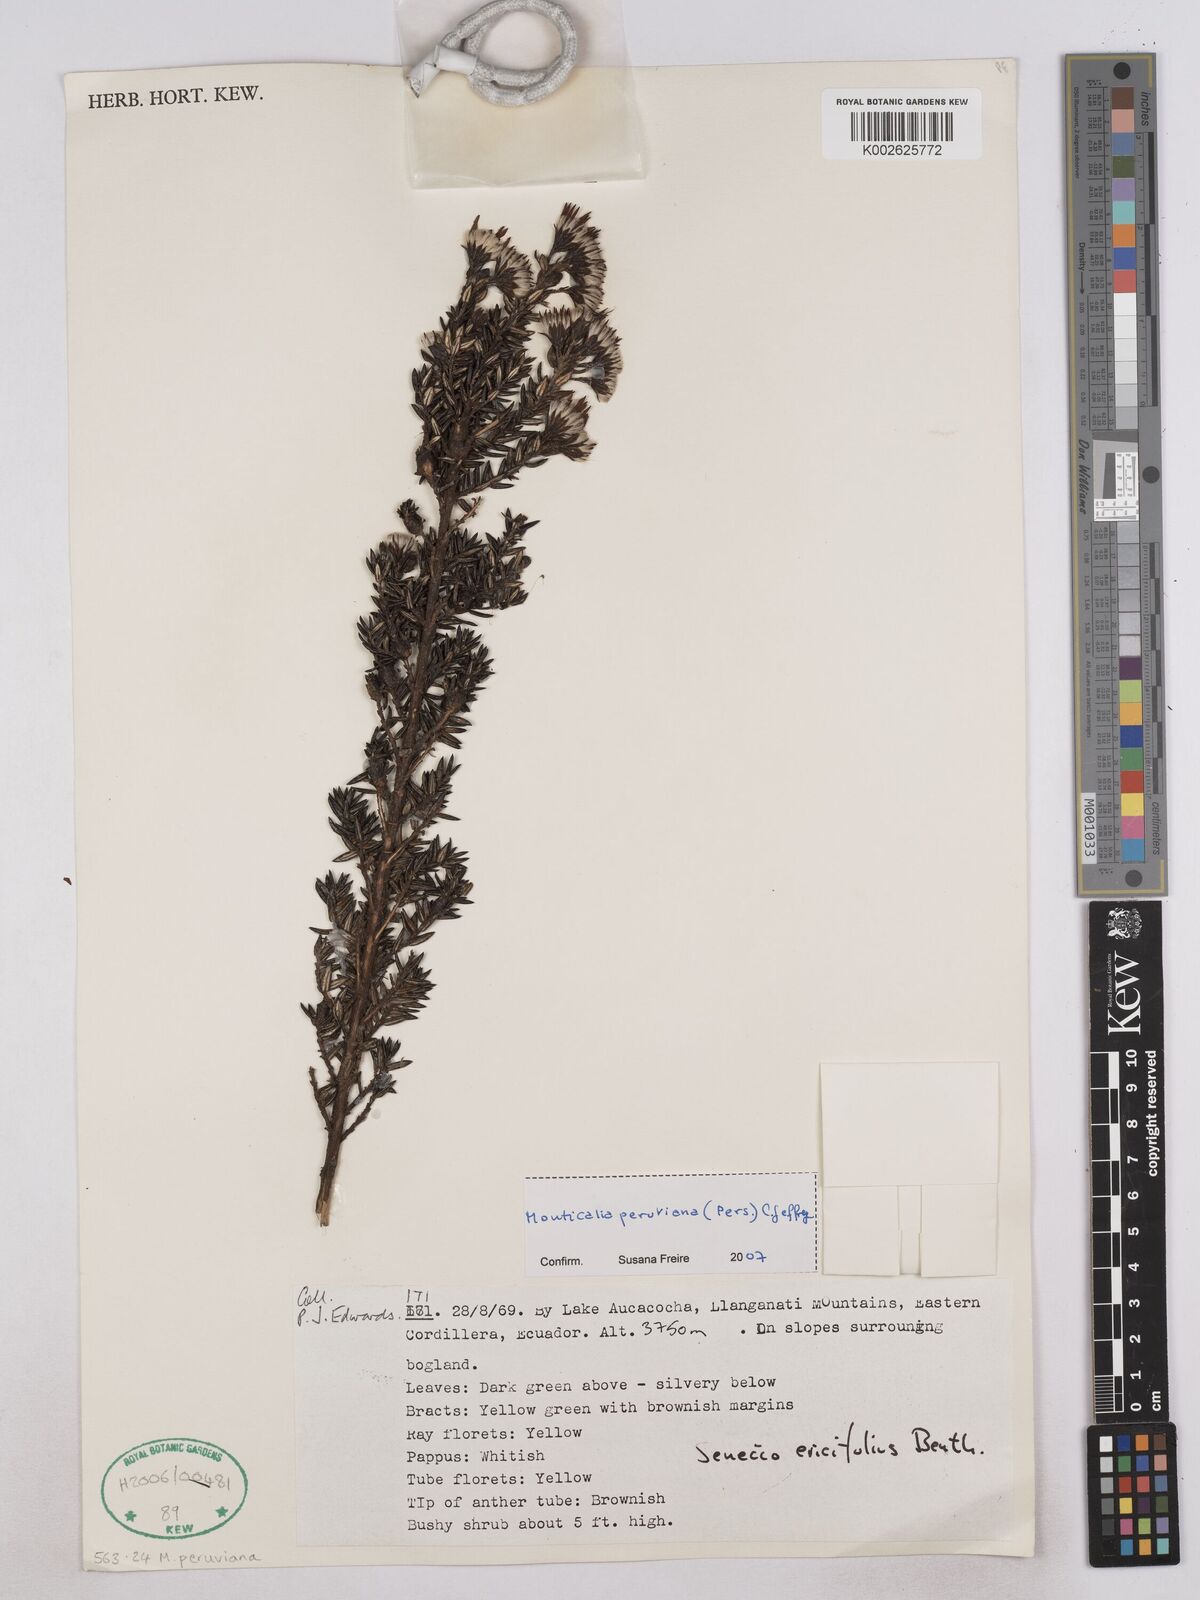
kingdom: Plantae
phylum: Tracheophyta
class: Magnoliopsida
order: Asterales
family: Asteraceae
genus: Monticalia
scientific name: Monticalia peruviana
